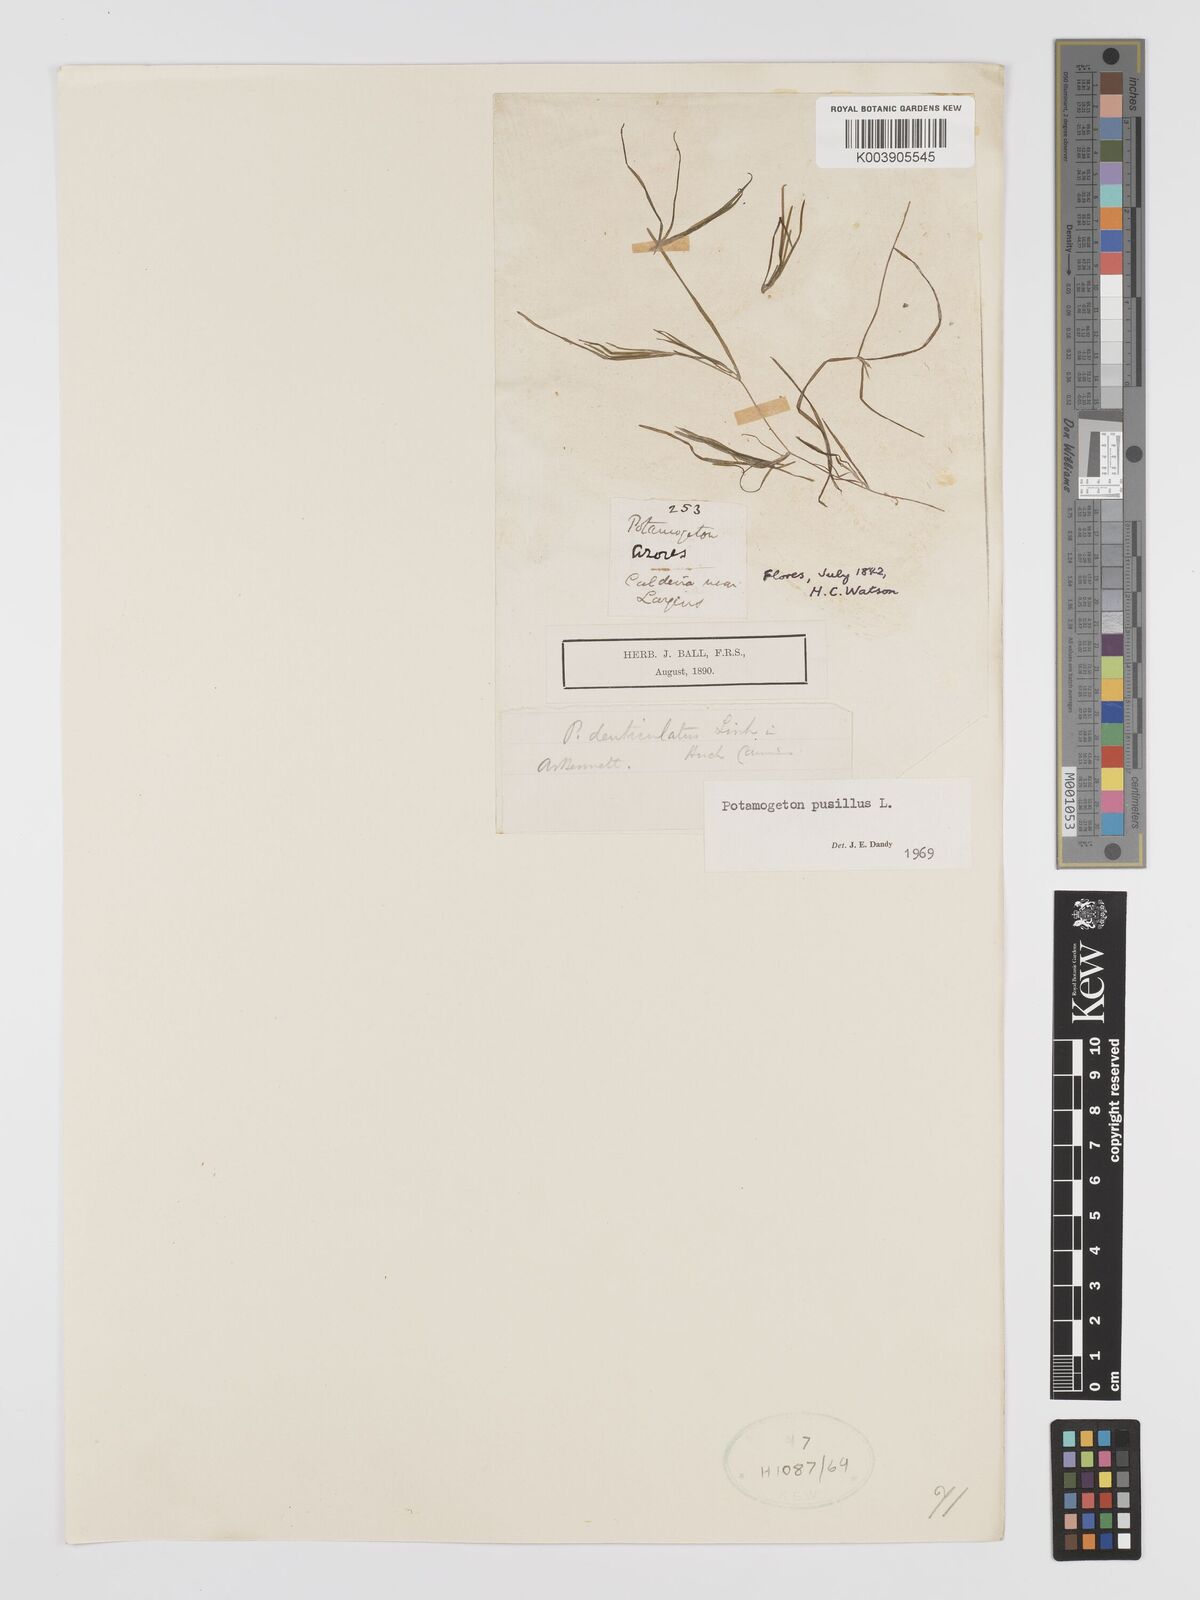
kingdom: Plantae
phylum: Tracheophyta
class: Liliopsida
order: Alismatales
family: Potamogetonaceae
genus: Potamogeton
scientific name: Potamogeton pusillus
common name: Lesser pondweed
